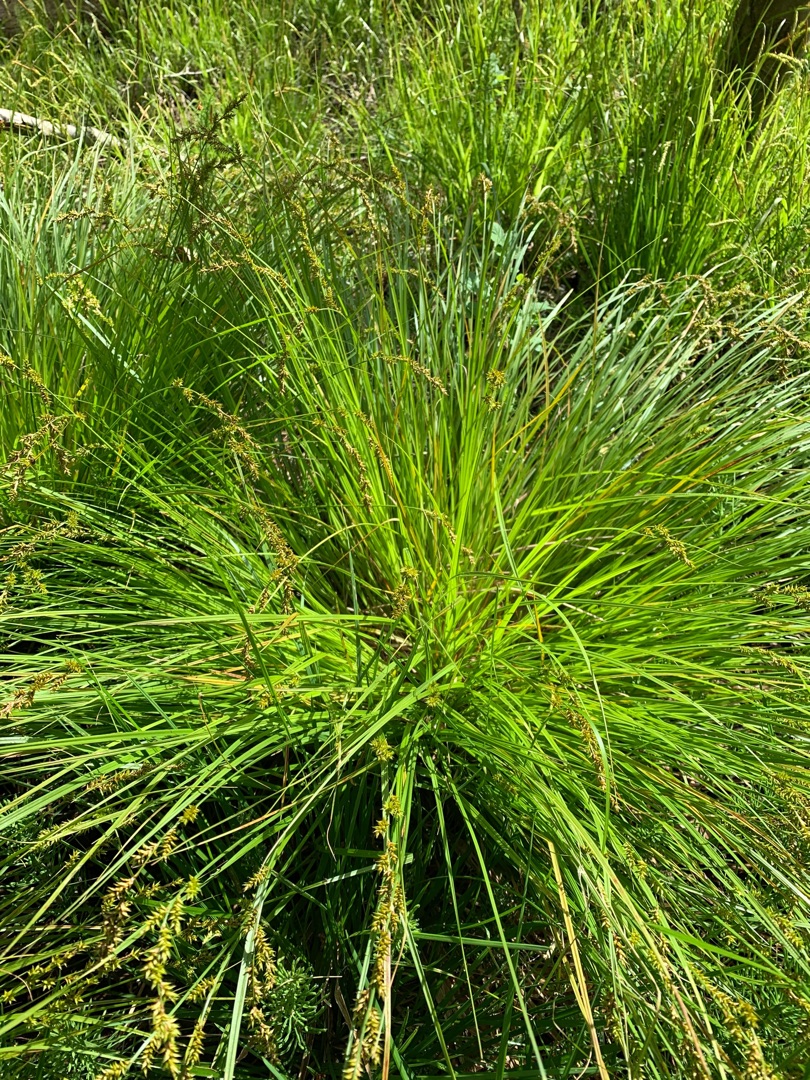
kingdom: Plantae
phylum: Tracheophyta
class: Liliopsida
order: Poales
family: Cyperaceae
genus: Carex
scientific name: Carex elongata
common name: Forlænget star
